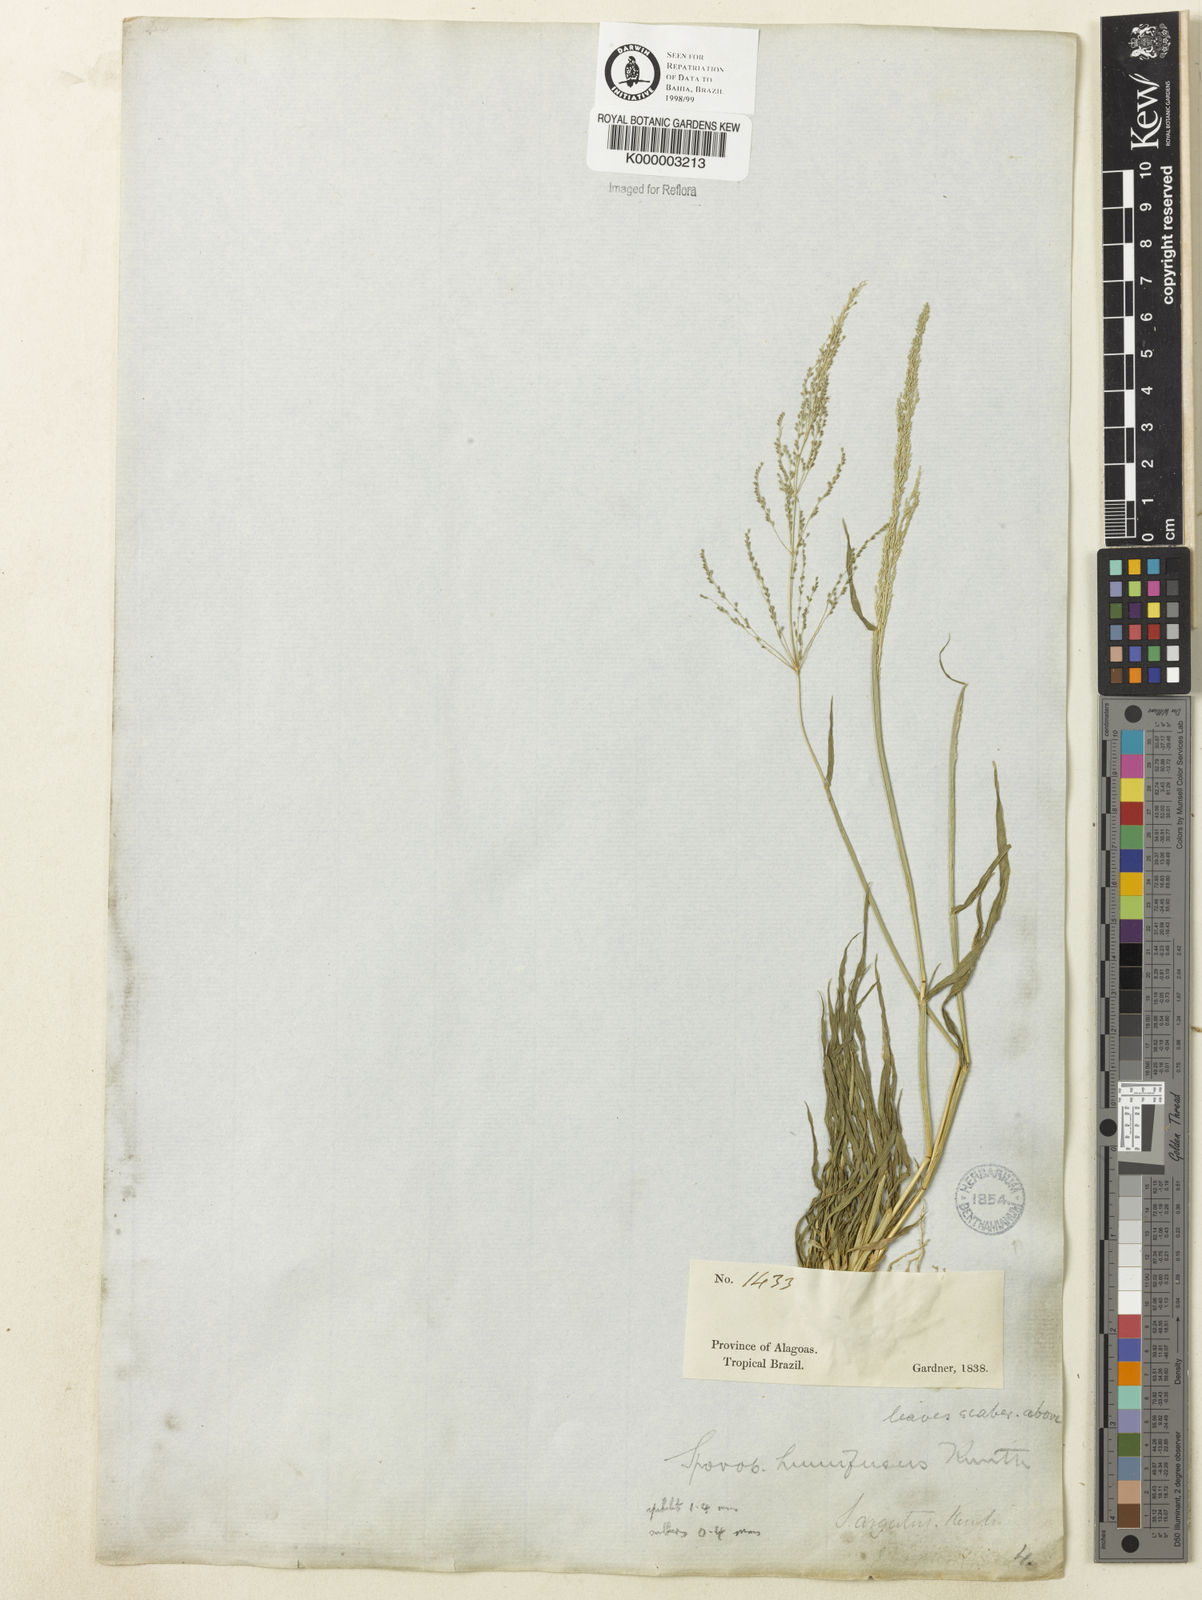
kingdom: Plantae
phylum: Tracheophyta
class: Liliopsida
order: Poales
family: Poaceae
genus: Sporobolus
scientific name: Sporobolus pyramidatus
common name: Whorled dropseed
